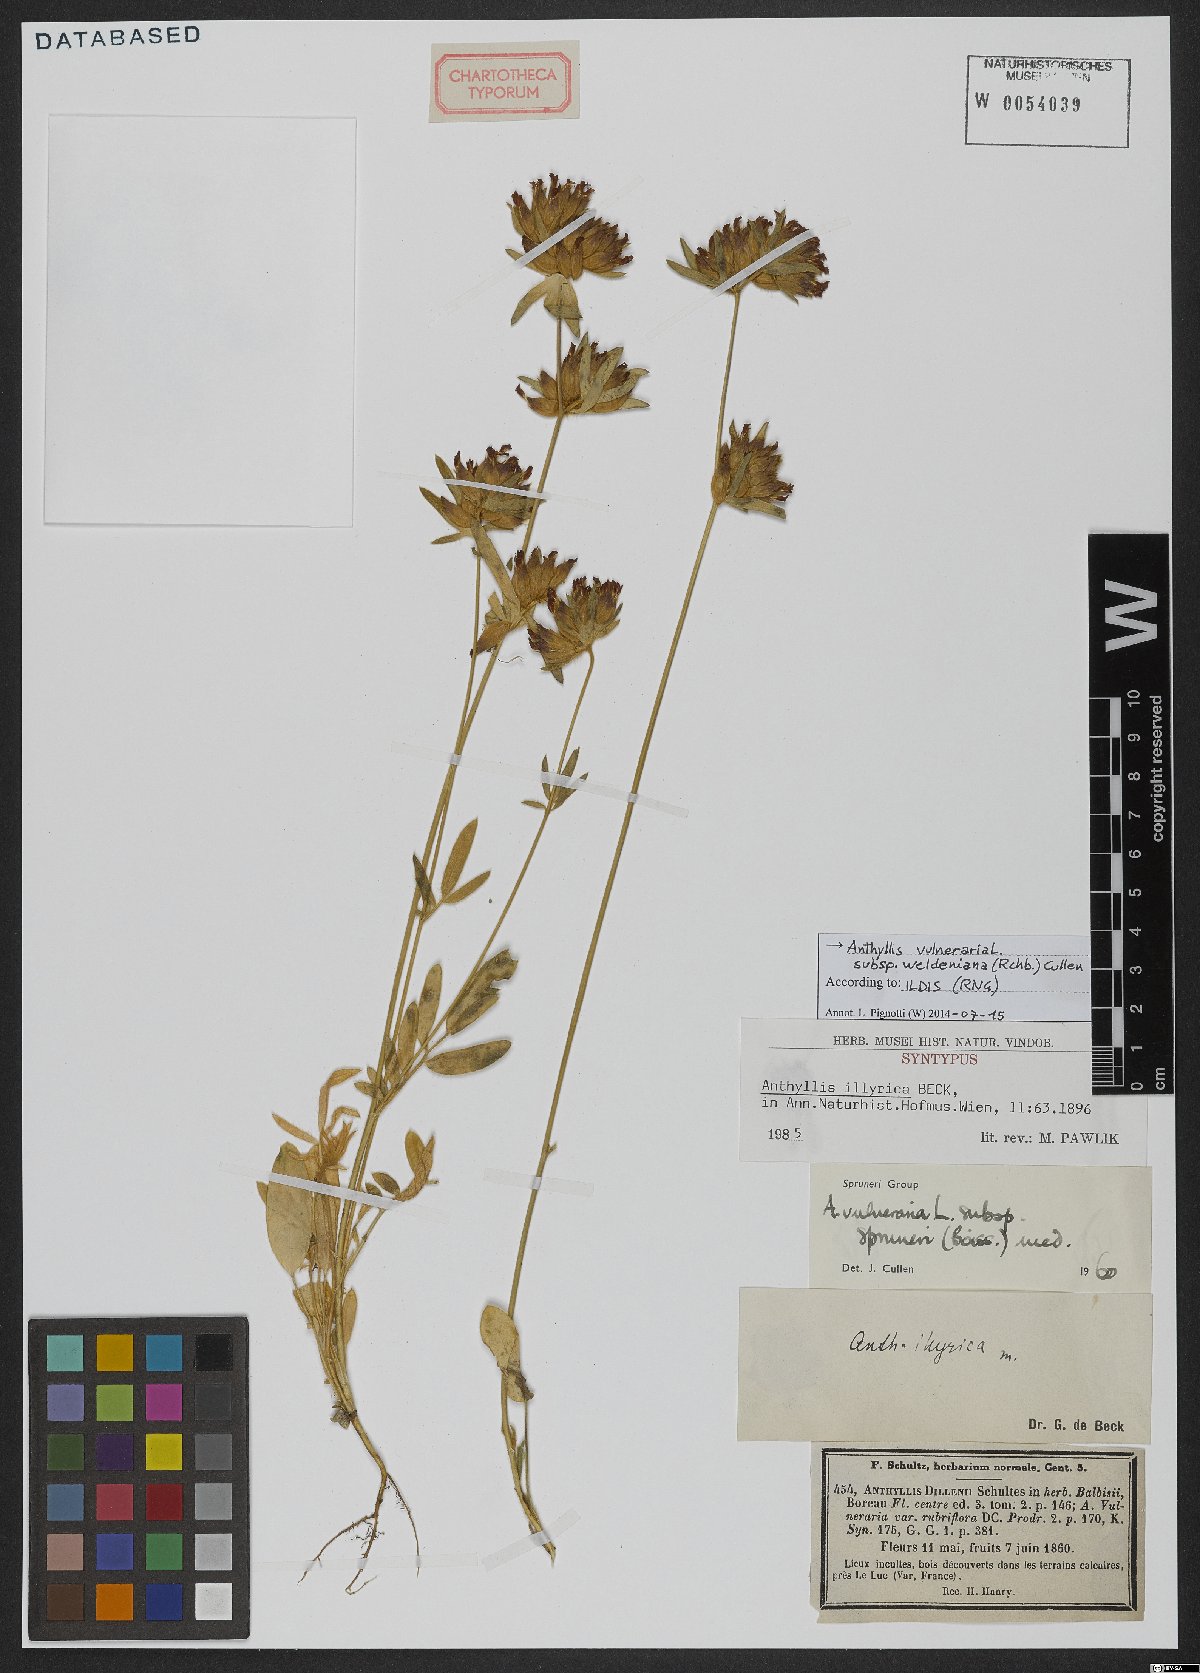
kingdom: Plantae
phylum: Tracheophyta
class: Magnoliopsida
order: Fabales
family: Fabaceae
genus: Anthyllis
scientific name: Anthyllis vulneraria
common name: Kidney vetch
